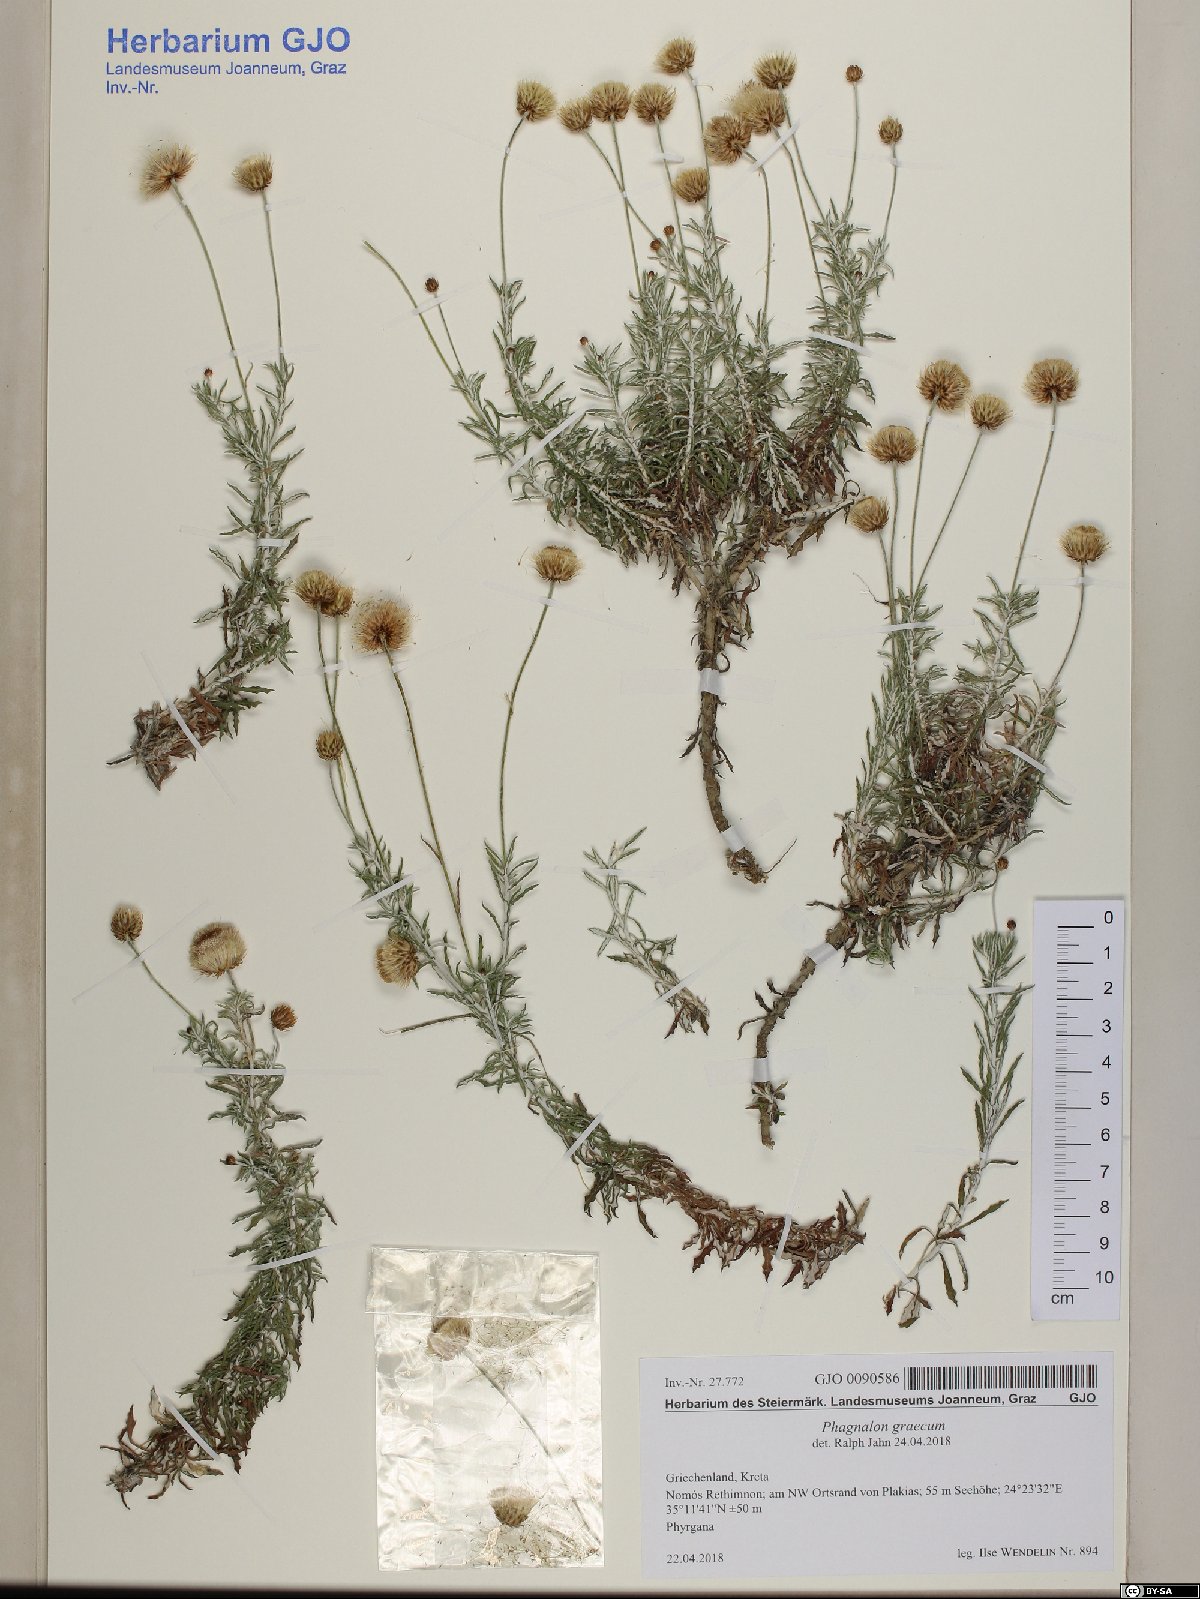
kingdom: Plantae
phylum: Tracheophyta
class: Magnoliopsida
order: Asterales
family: Asteraceae
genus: Phagnalon
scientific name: Phagnalon graecum
